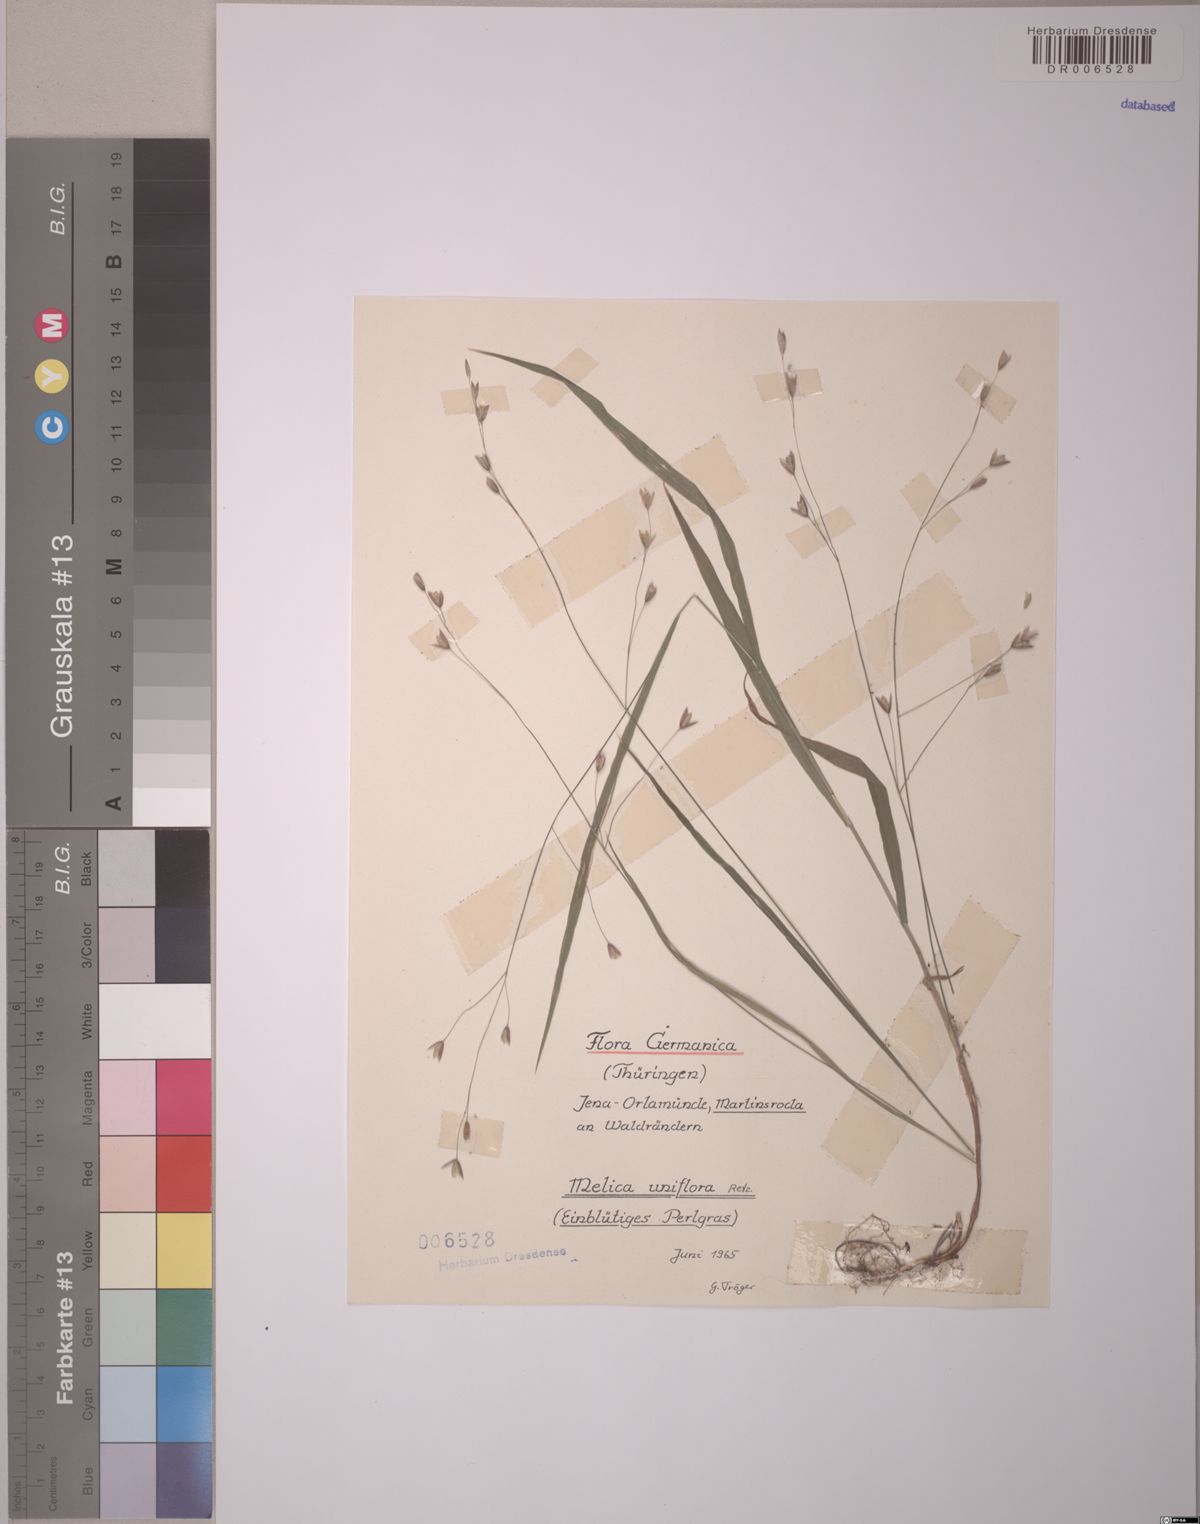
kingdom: Plantae
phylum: Tracheophyta
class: Liliopsida
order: Poales
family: Poaceae
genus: Melica
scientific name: Melica uniflora
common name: Wood melick
